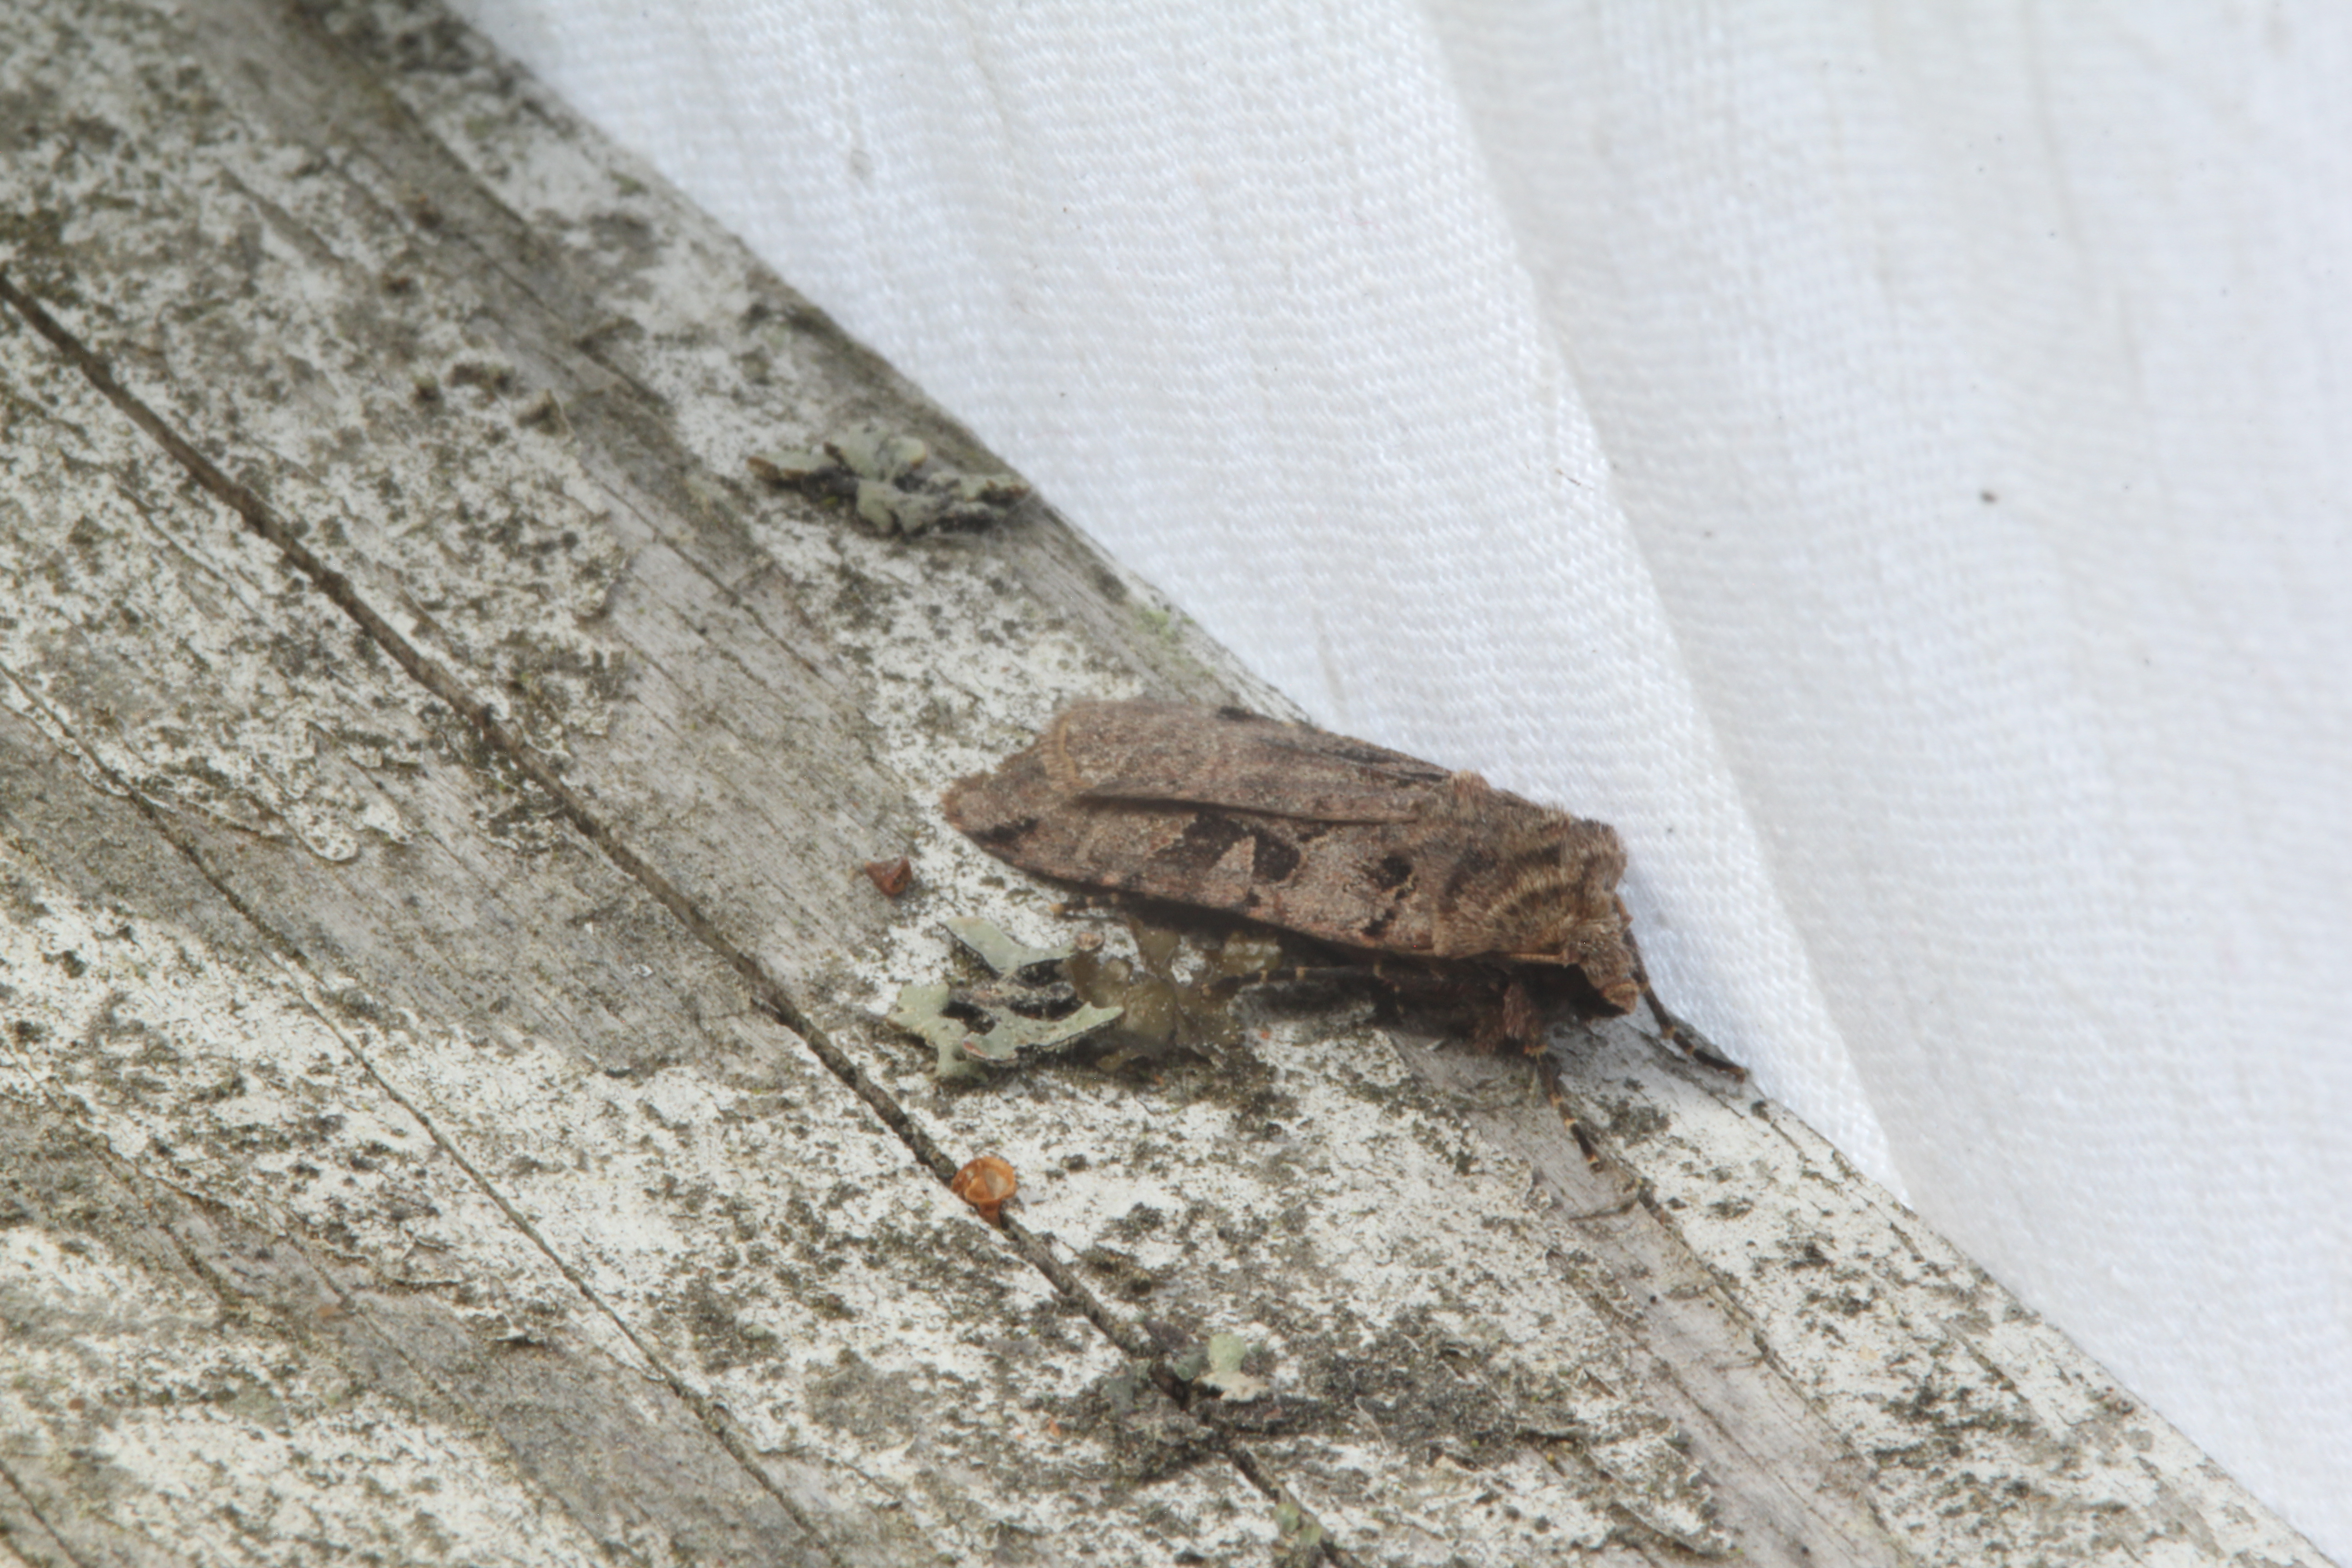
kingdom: Animalia
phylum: Arthropoda
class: Insecta
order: Lepidoptera
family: Noctuidae
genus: Xestia
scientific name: Xestia triangulum
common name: Double square-spot
